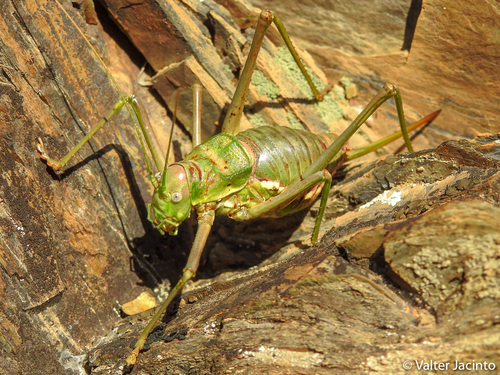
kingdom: Animalia
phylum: Arthropoda
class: Insecta
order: Orthoptera
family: Tettigoniidae
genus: Steropleurus
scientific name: Steropleurus pseudolus
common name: Pseudolus' saddle bush-cricket
